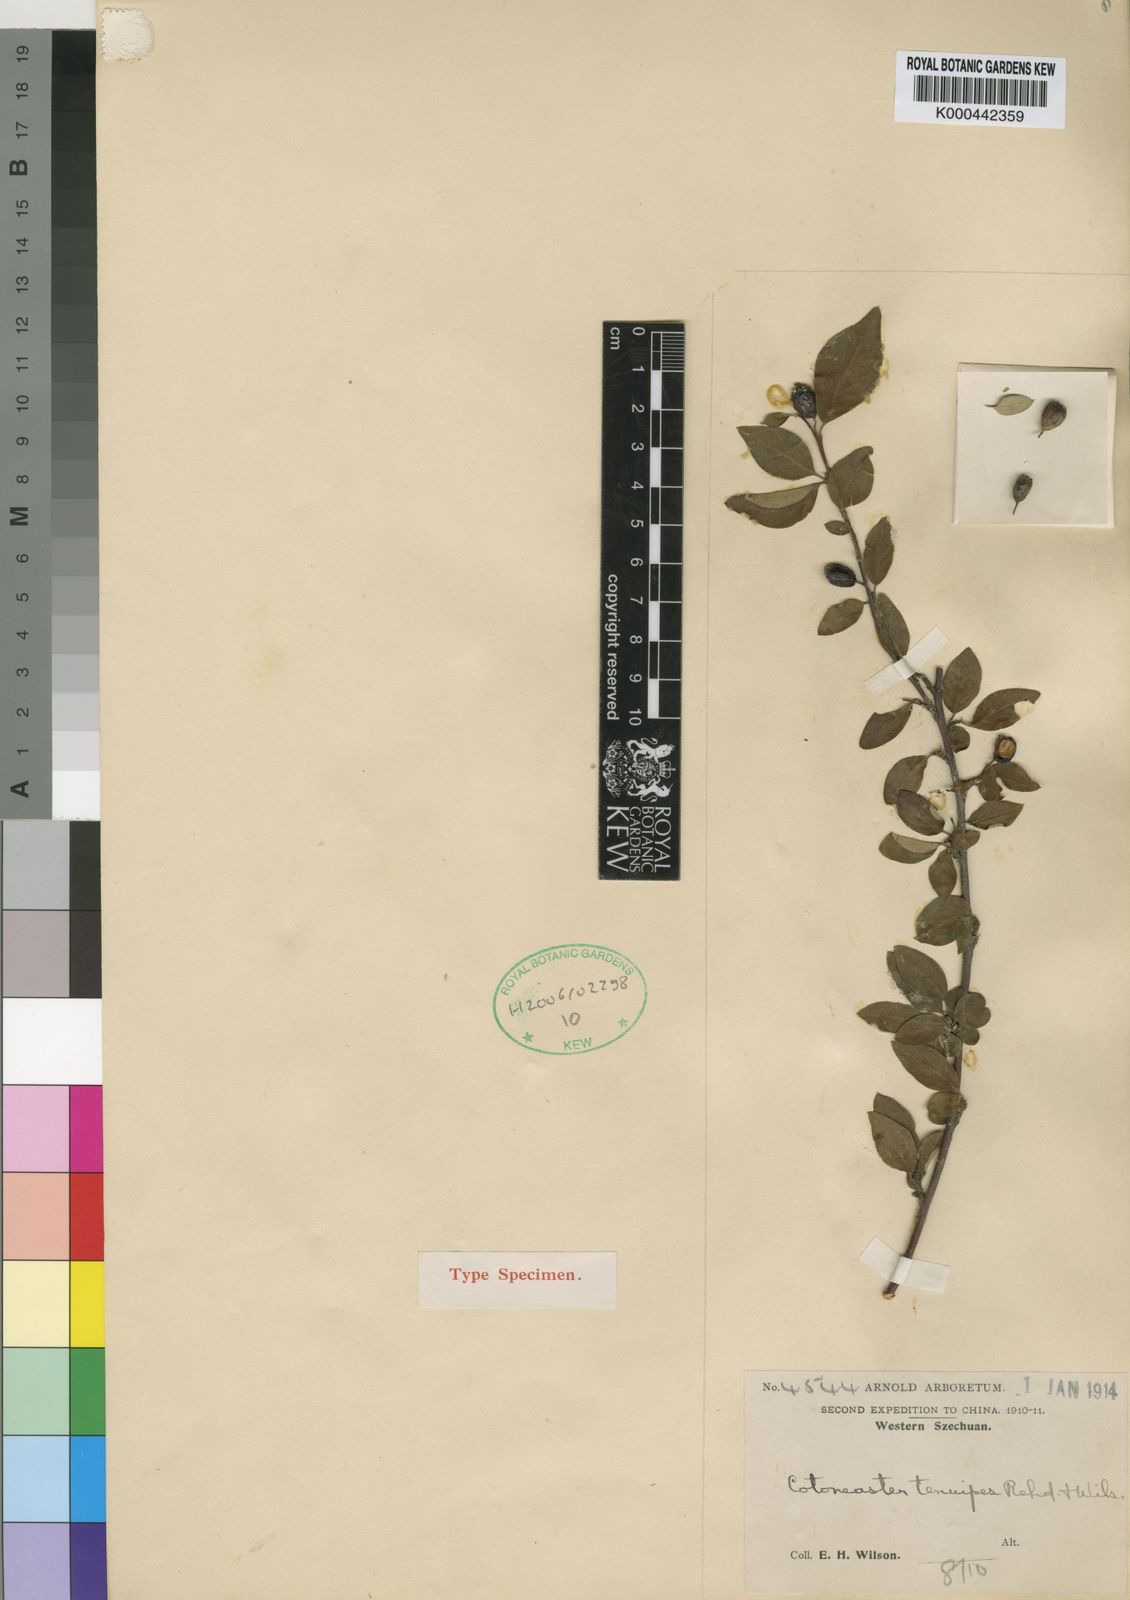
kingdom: Plantae
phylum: Tracheophyta
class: Magnoliopsida
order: Rosales
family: Rosaceae
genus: Cotoneaster
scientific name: Cotoneaster tenuipes
